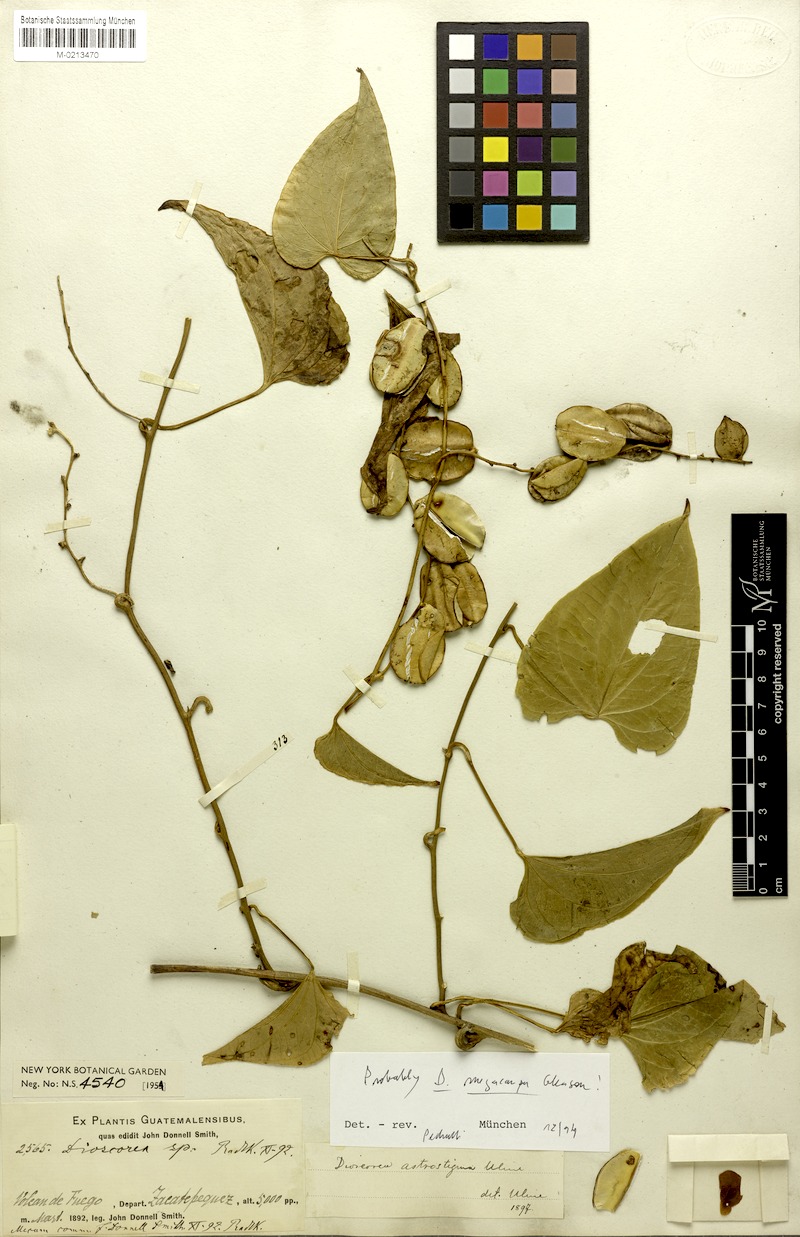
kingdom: Plantae
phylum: Tracheophyta
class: Liliopsida
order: Dioscoreales
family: Dioscoreaceae
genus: Dioscorea
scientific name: Dioscorea mexicana
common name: Mexican yam
